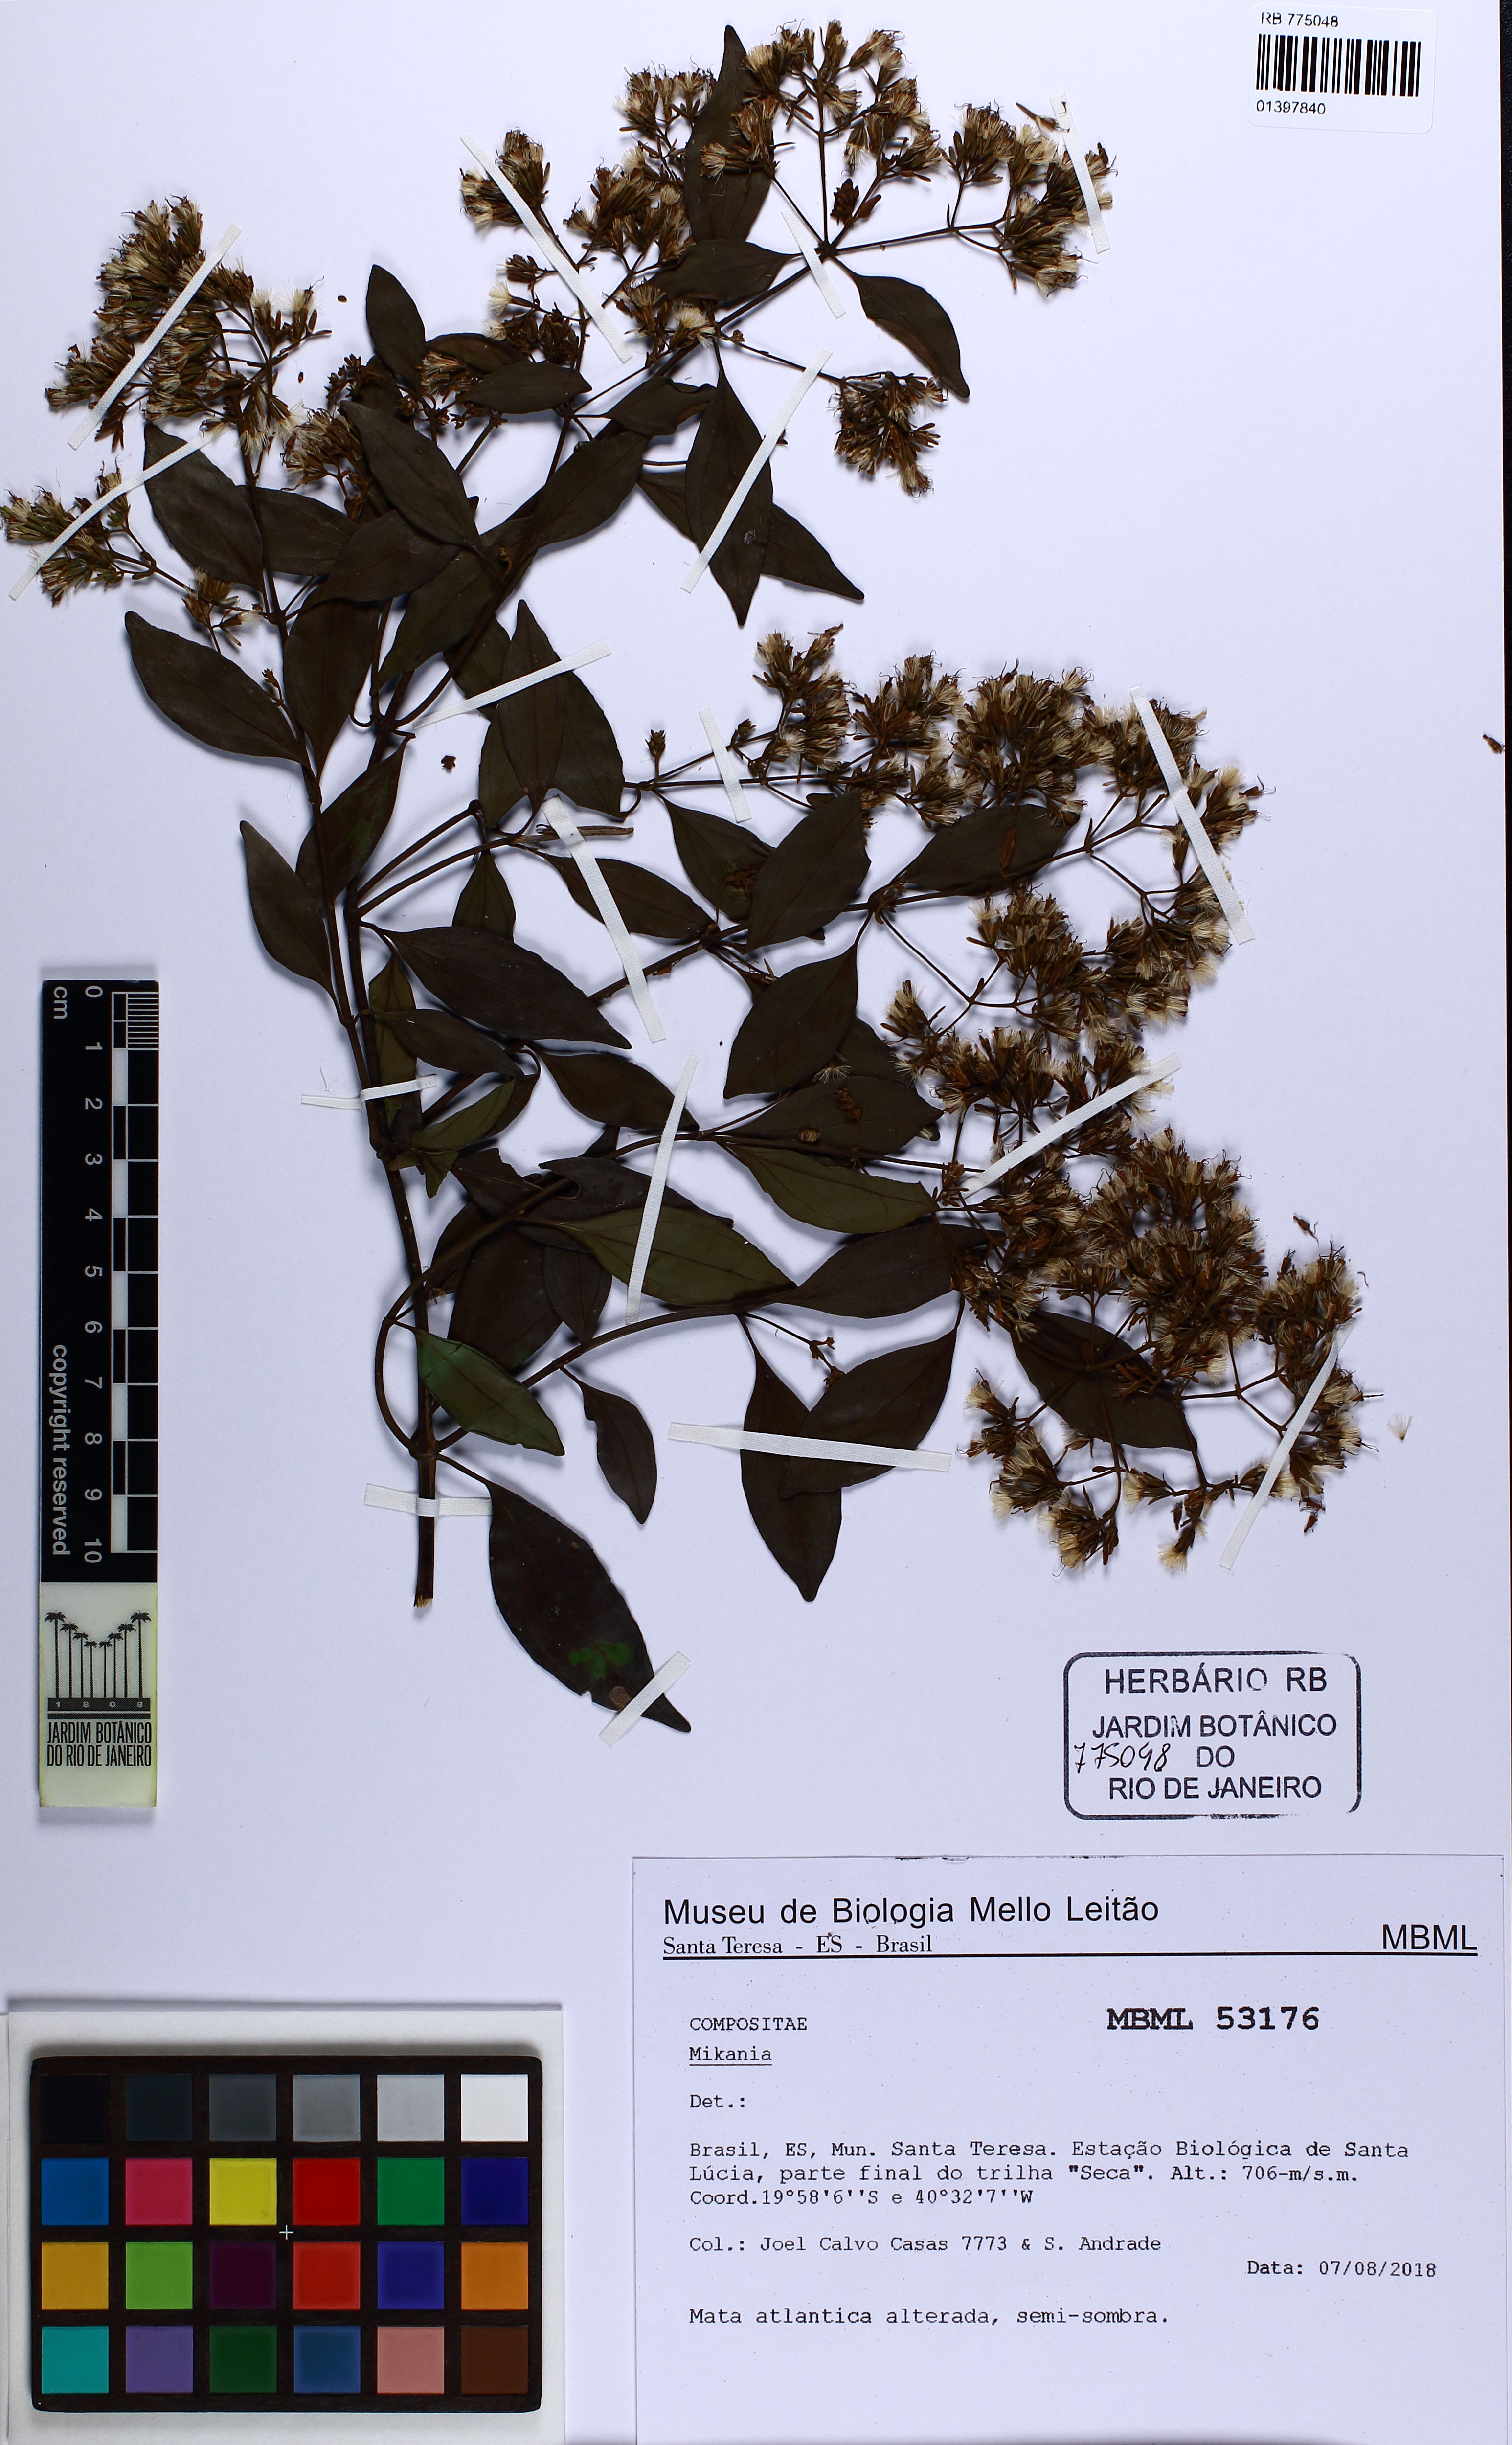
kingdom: Plantae
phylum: Tracheophyta
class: Magnoliopsida
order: Asterales
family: Asteraceae
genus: Mikania
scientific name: Mikania
